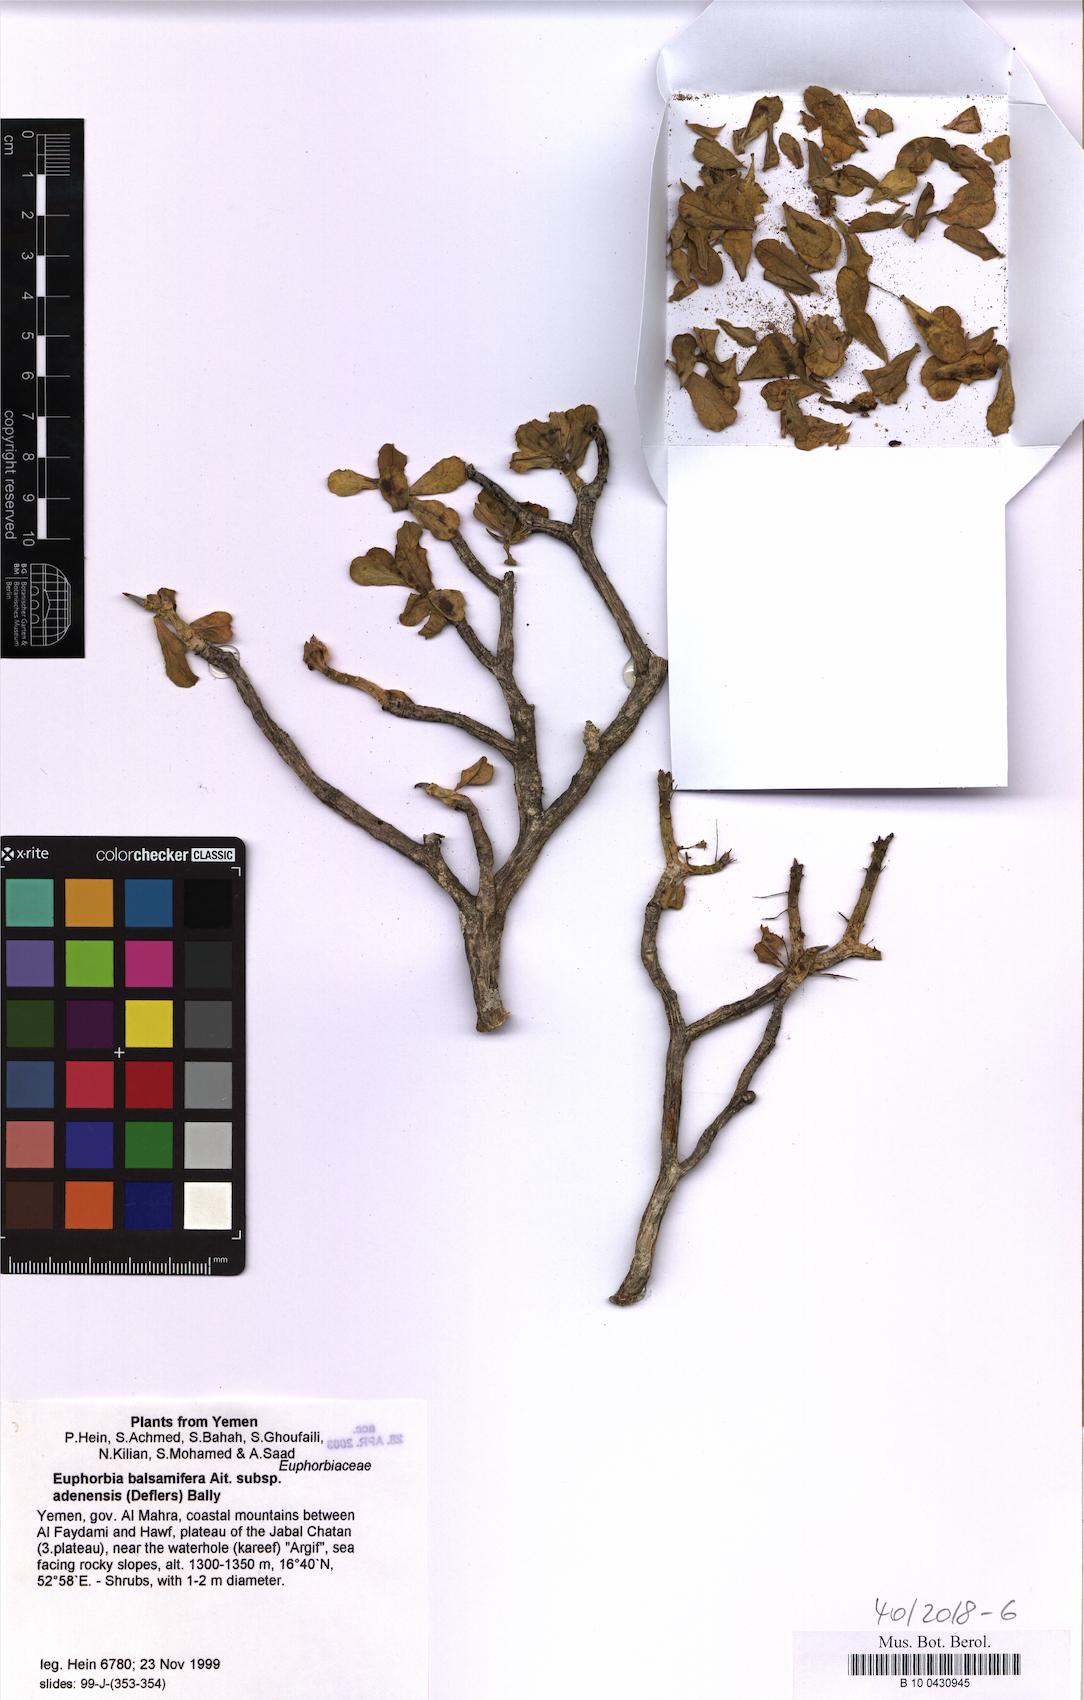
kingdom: Plantae
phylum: Tracheophyta
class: Magnoliopsida
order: Malpighiales
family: Euphorbiaceae
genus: Euphorbia
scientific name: Euphorbia adenensis
